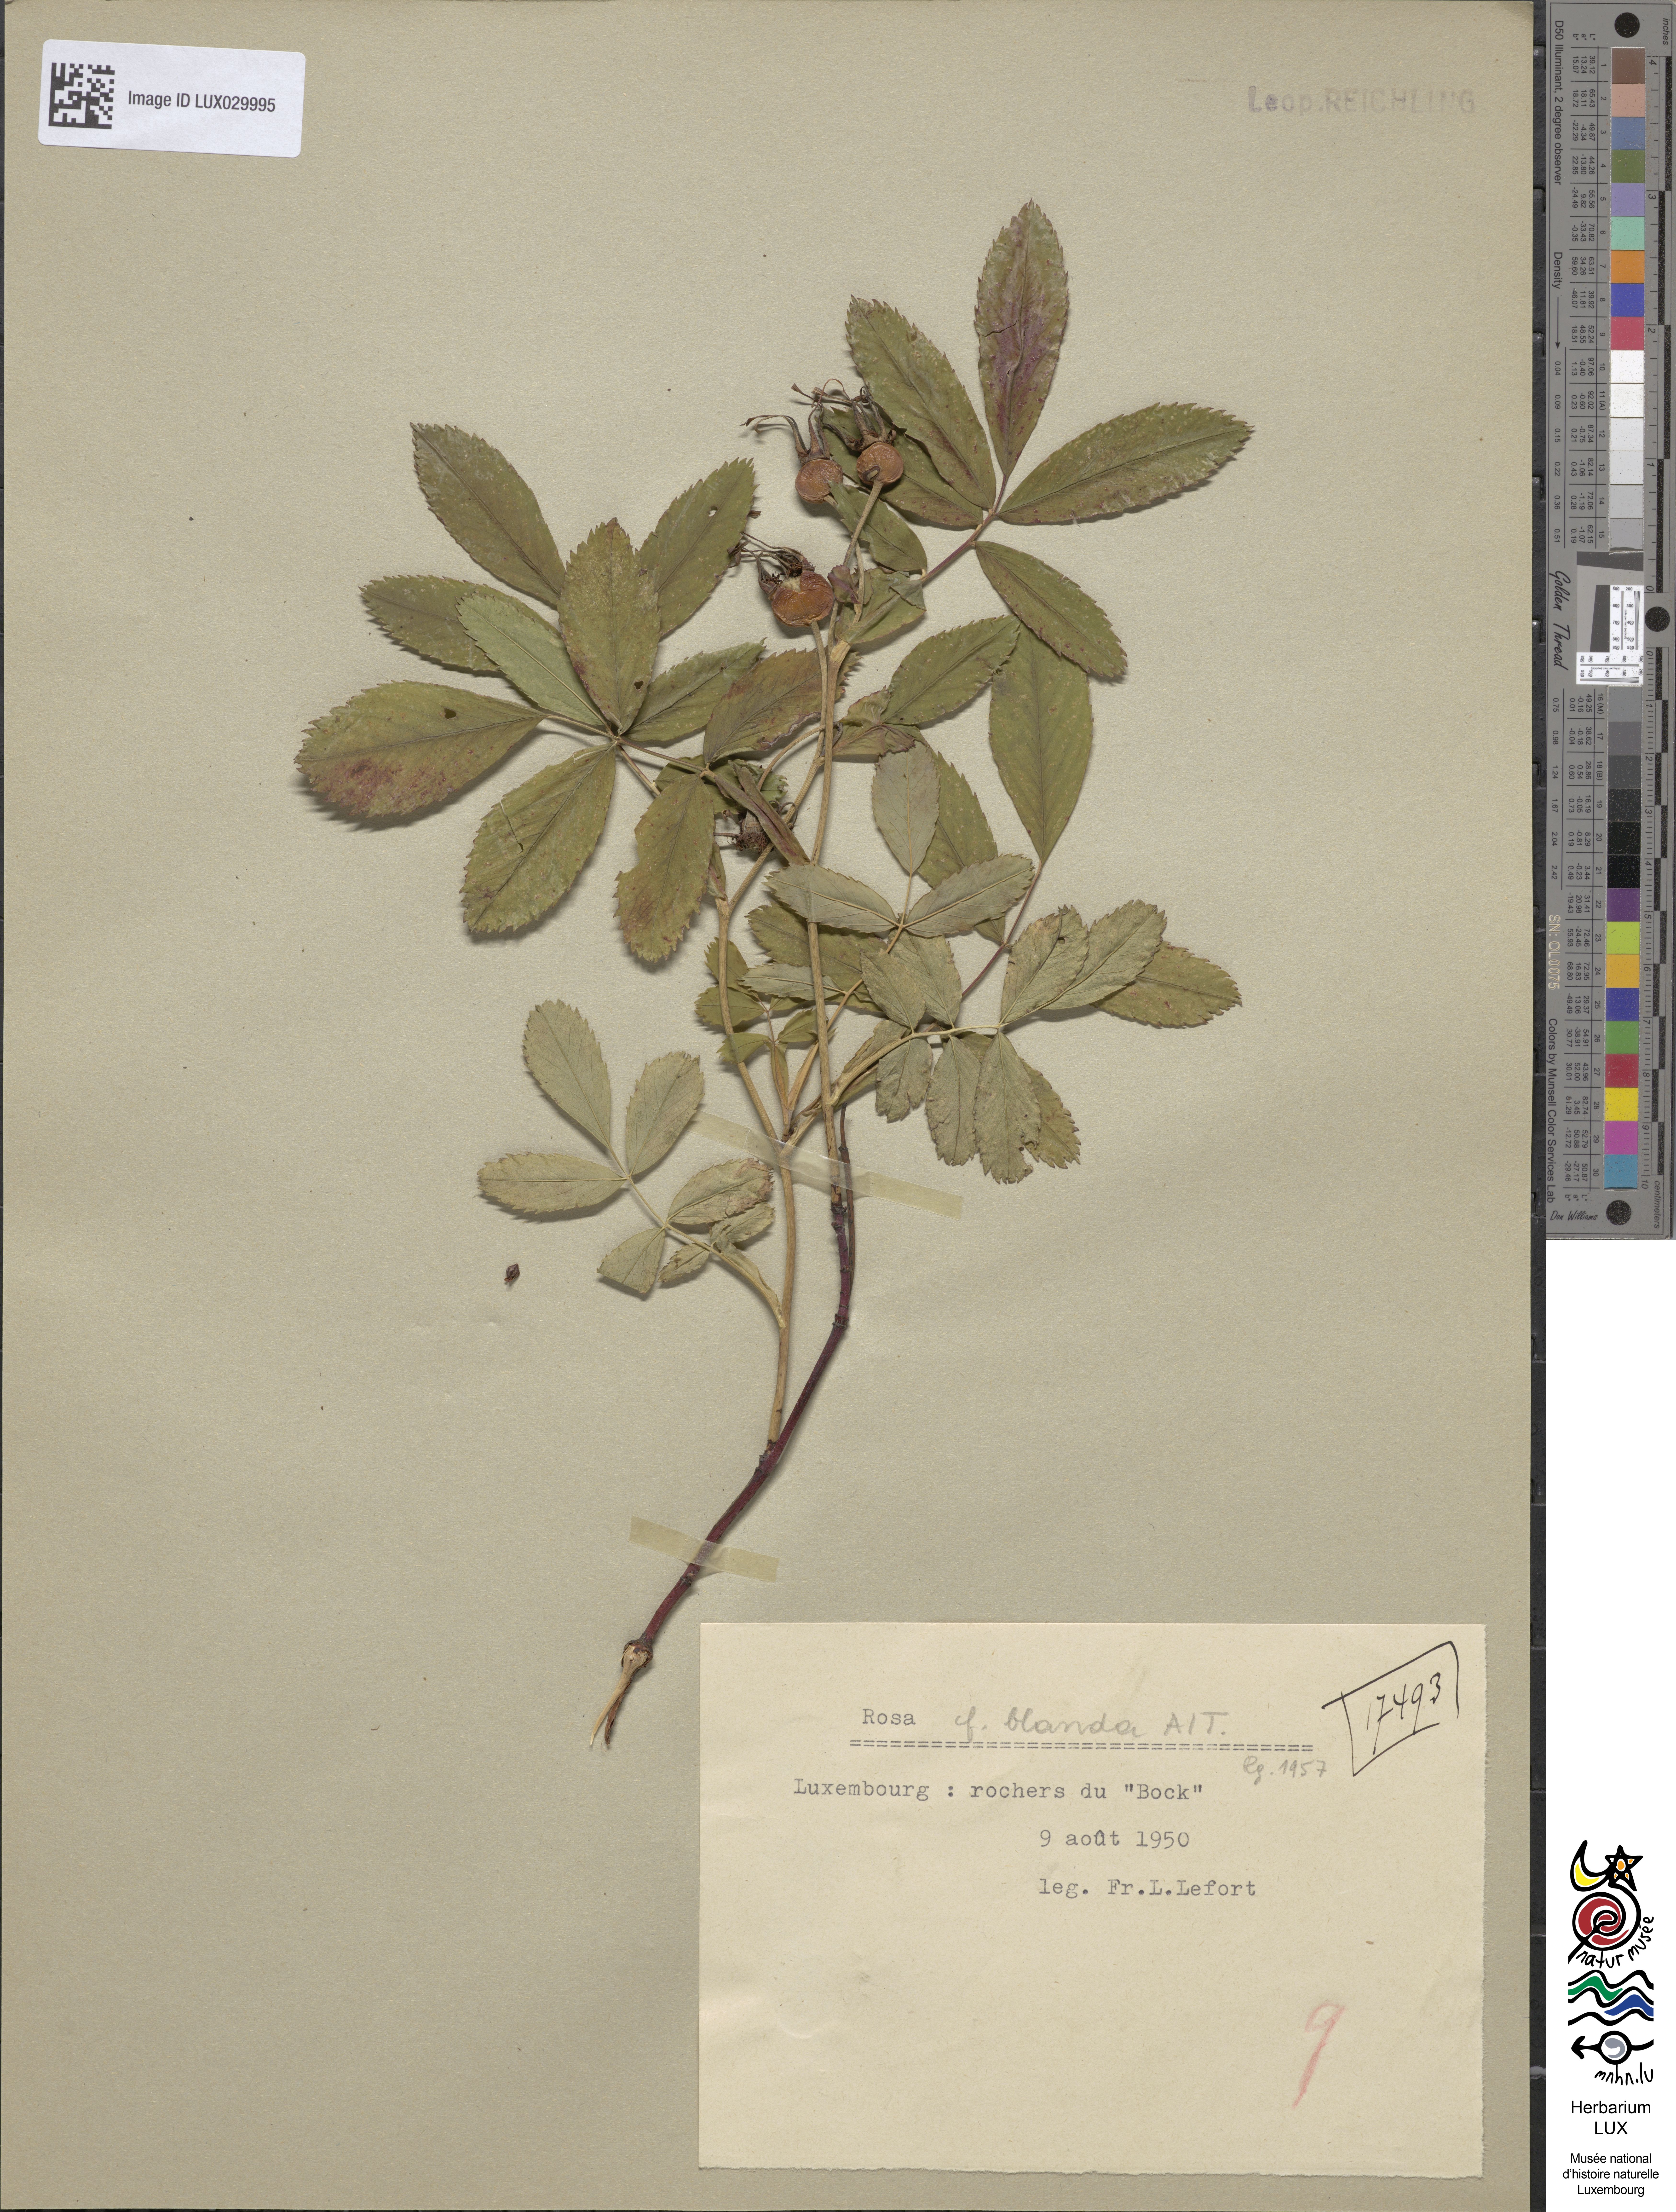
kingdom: Plantae
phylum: Tracheophyta
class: Magnoliopsida
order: Rosales
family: Rosaceae
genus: Rosa
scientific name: Rosa
